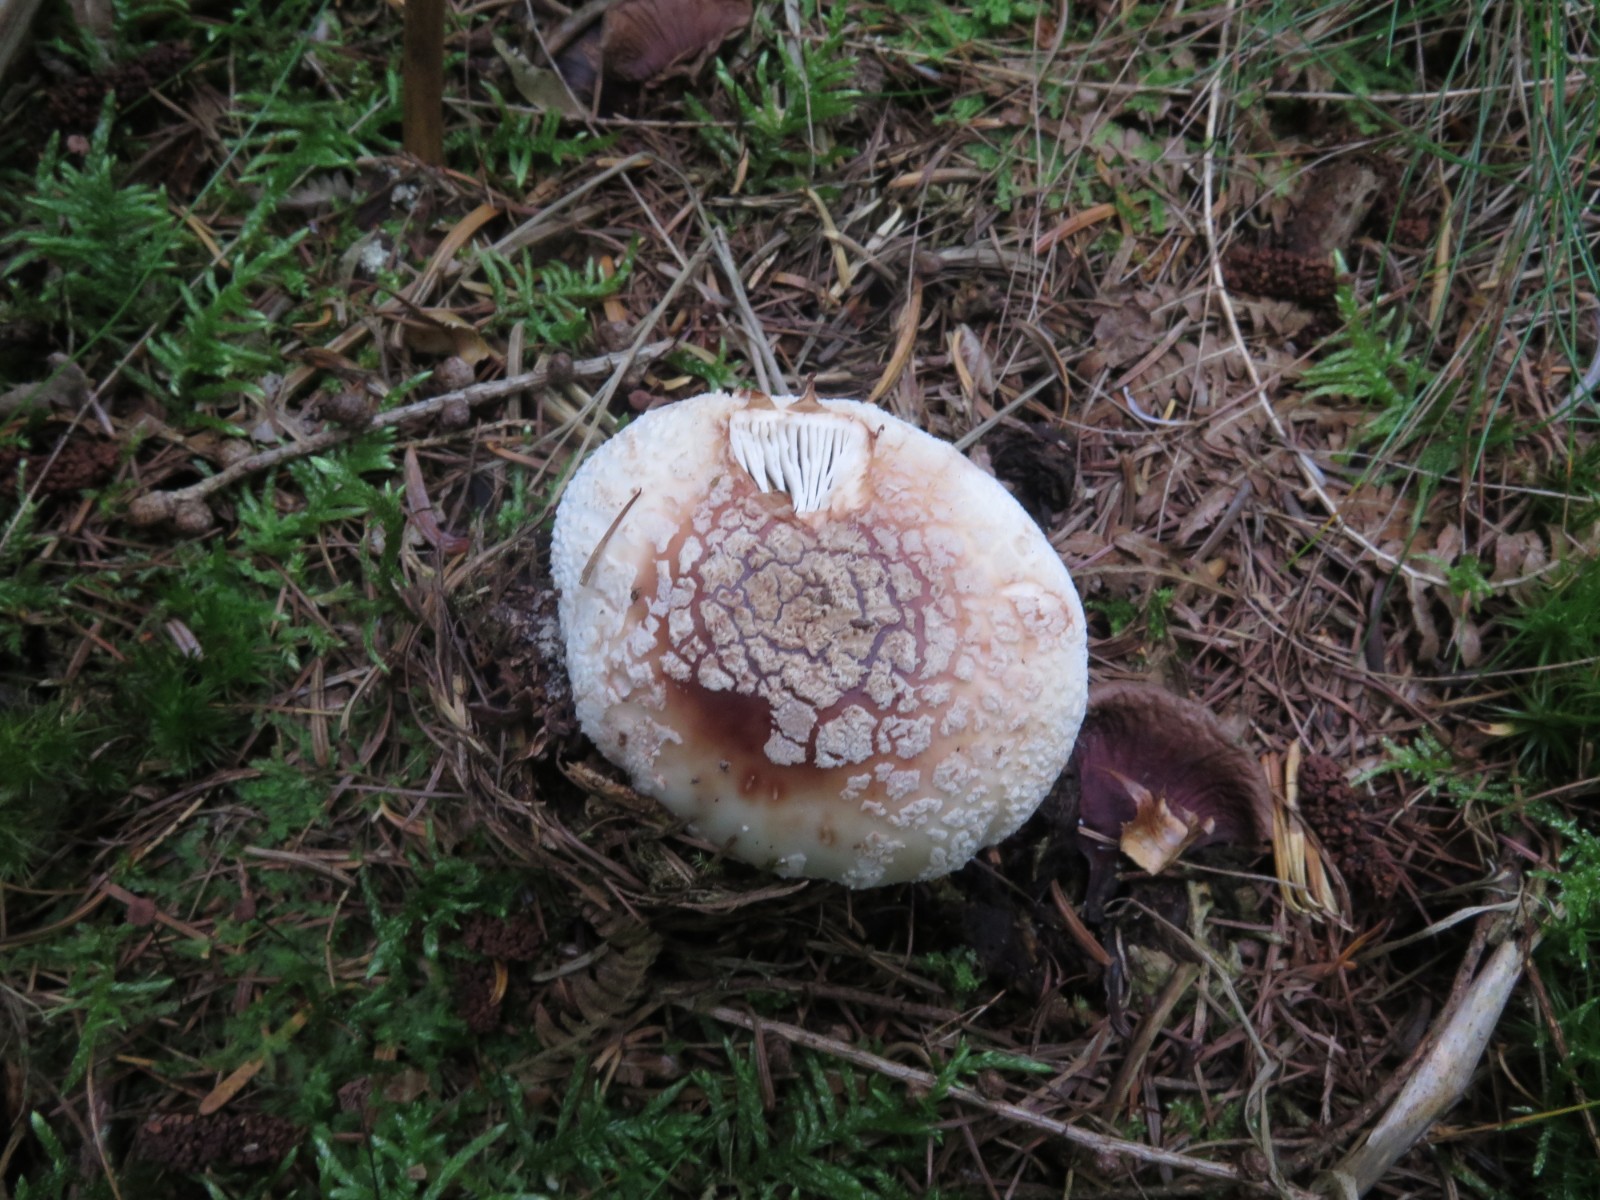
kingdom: Fungi
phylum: Basidiomycota
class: Agaricomycetes
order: Agaricales
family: Amanitaceae
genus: Amanita
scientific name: Amanita
